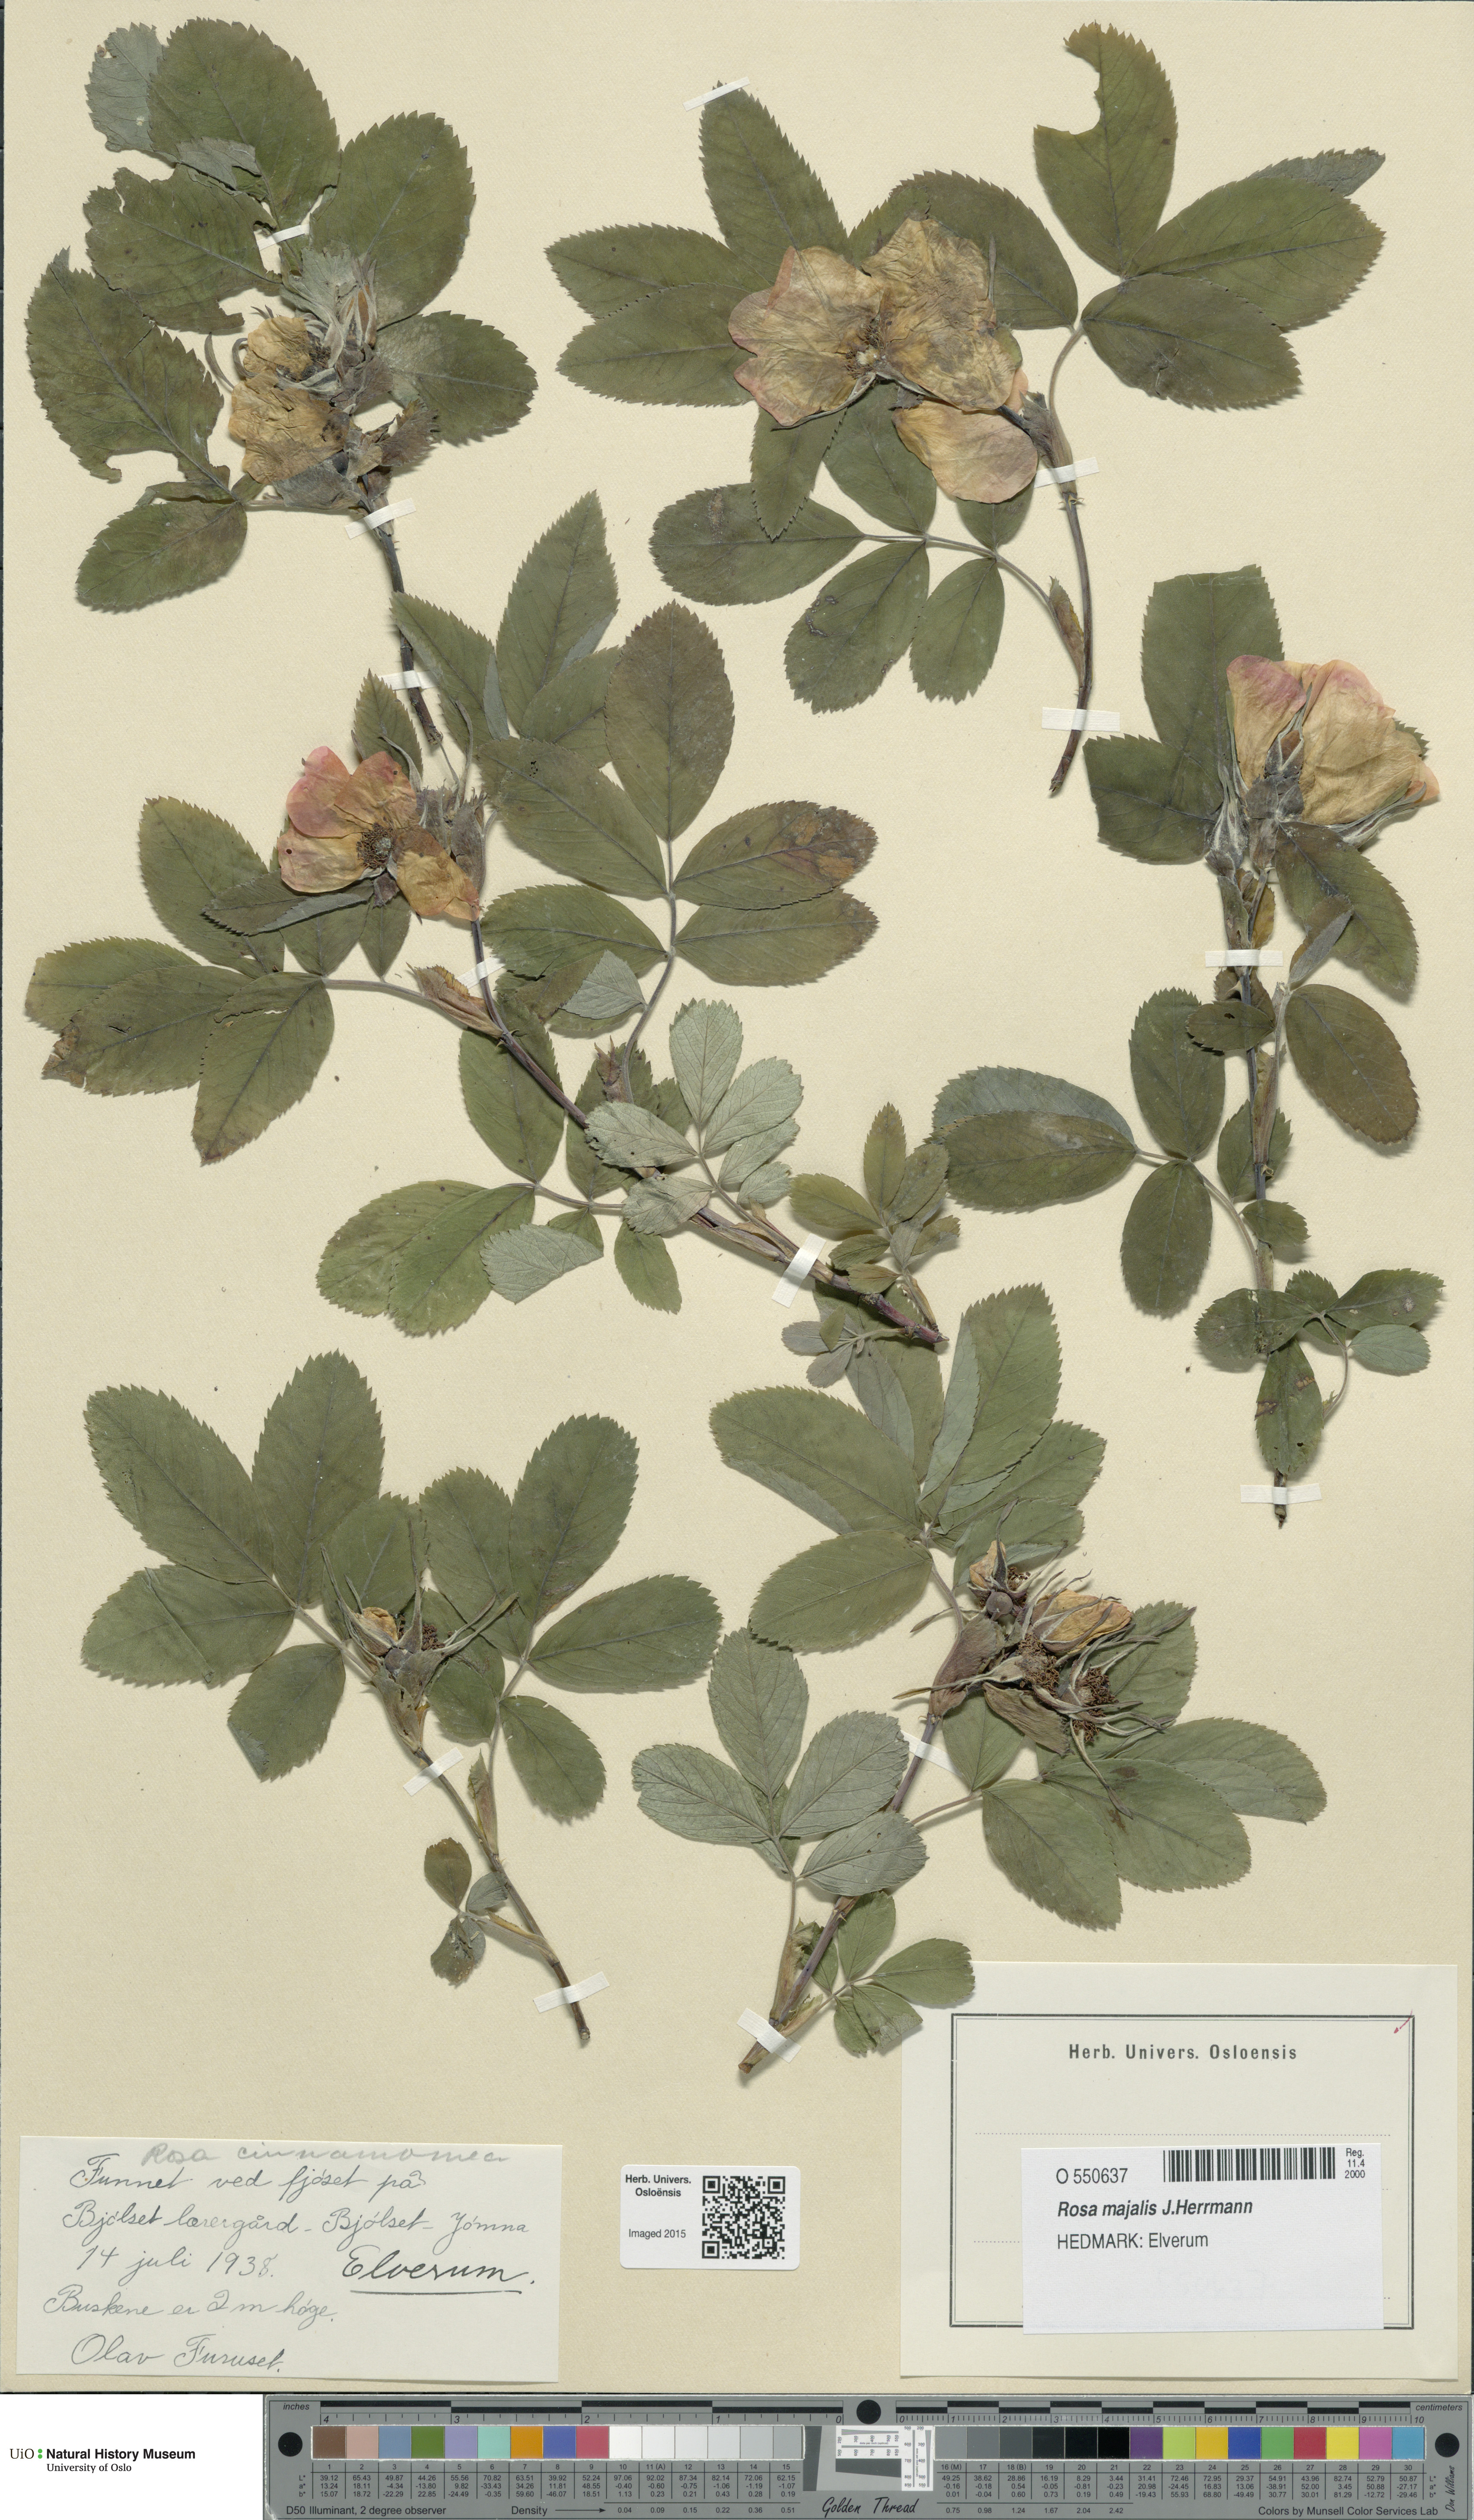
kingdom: Plantae
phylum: Tracheophyta
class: Magnoliopsida
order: Rosales
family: Rosaceae
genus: Rosa
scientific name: Rosa pendulina
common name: Alpine rose
